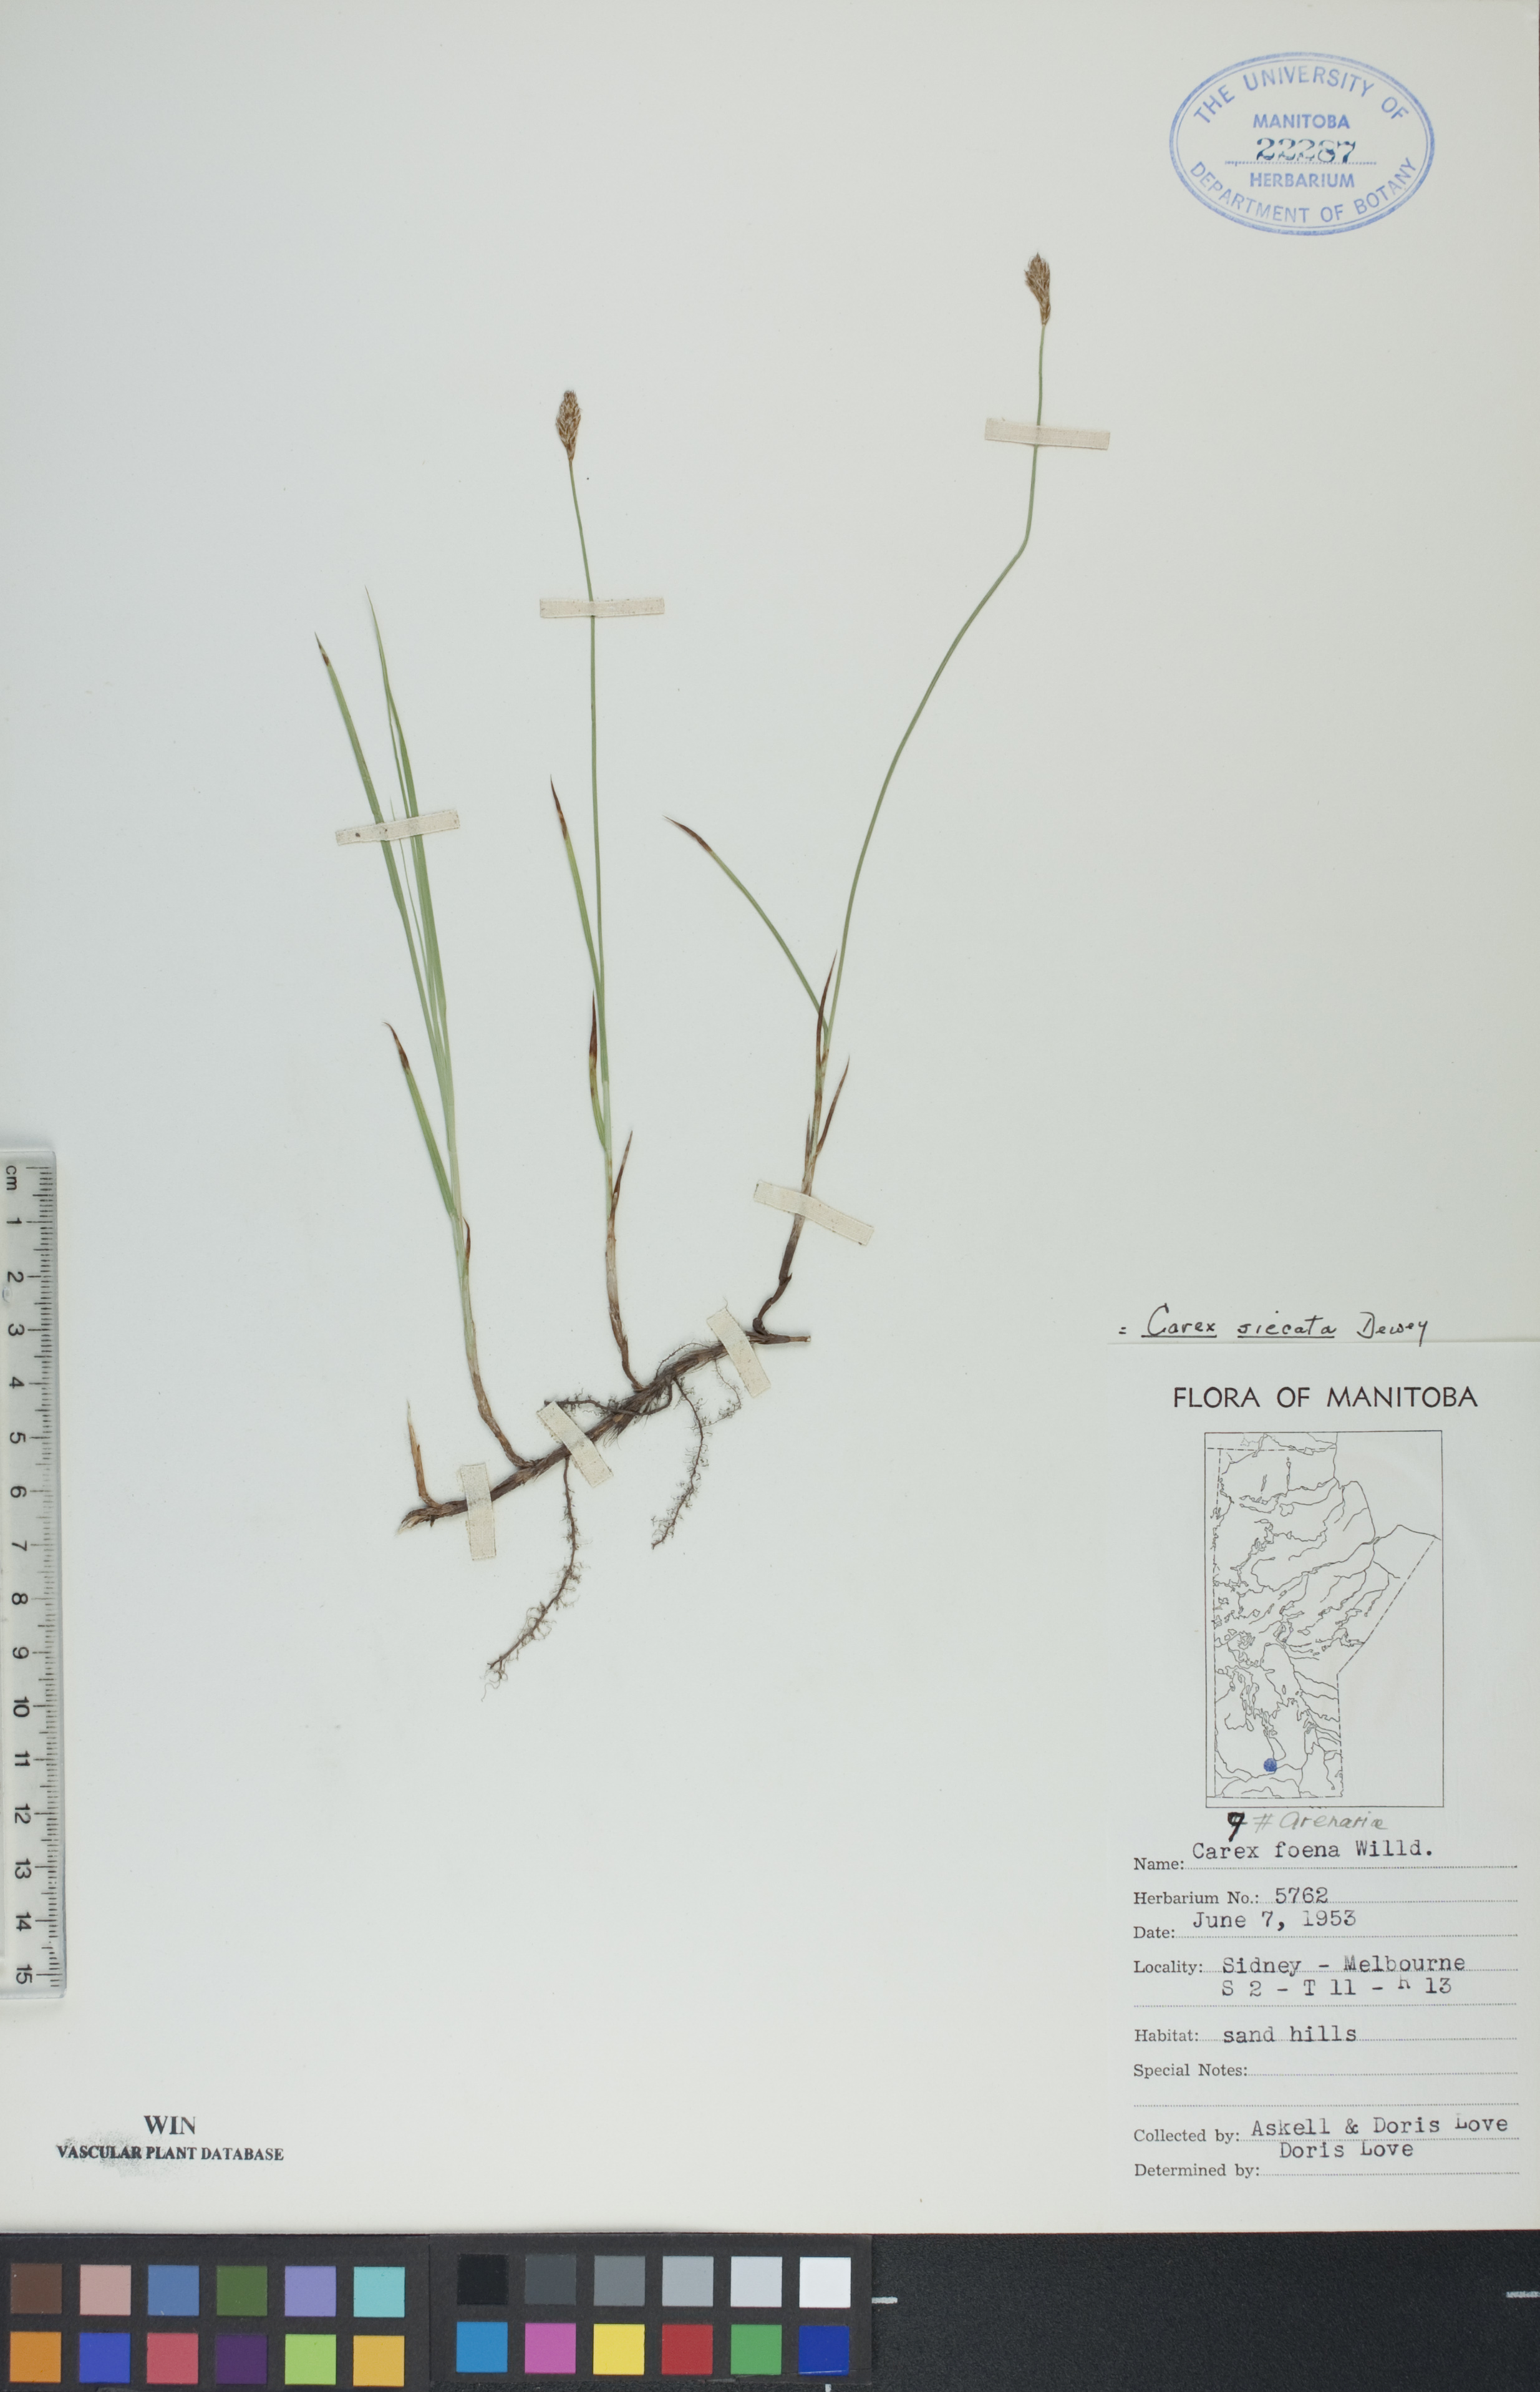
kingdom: Plantae
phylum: Tracheophyta
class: Liliopsida
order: Poales
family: Cyperaceae
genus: Carex
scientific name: Carex siccata
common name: Dry sedge
